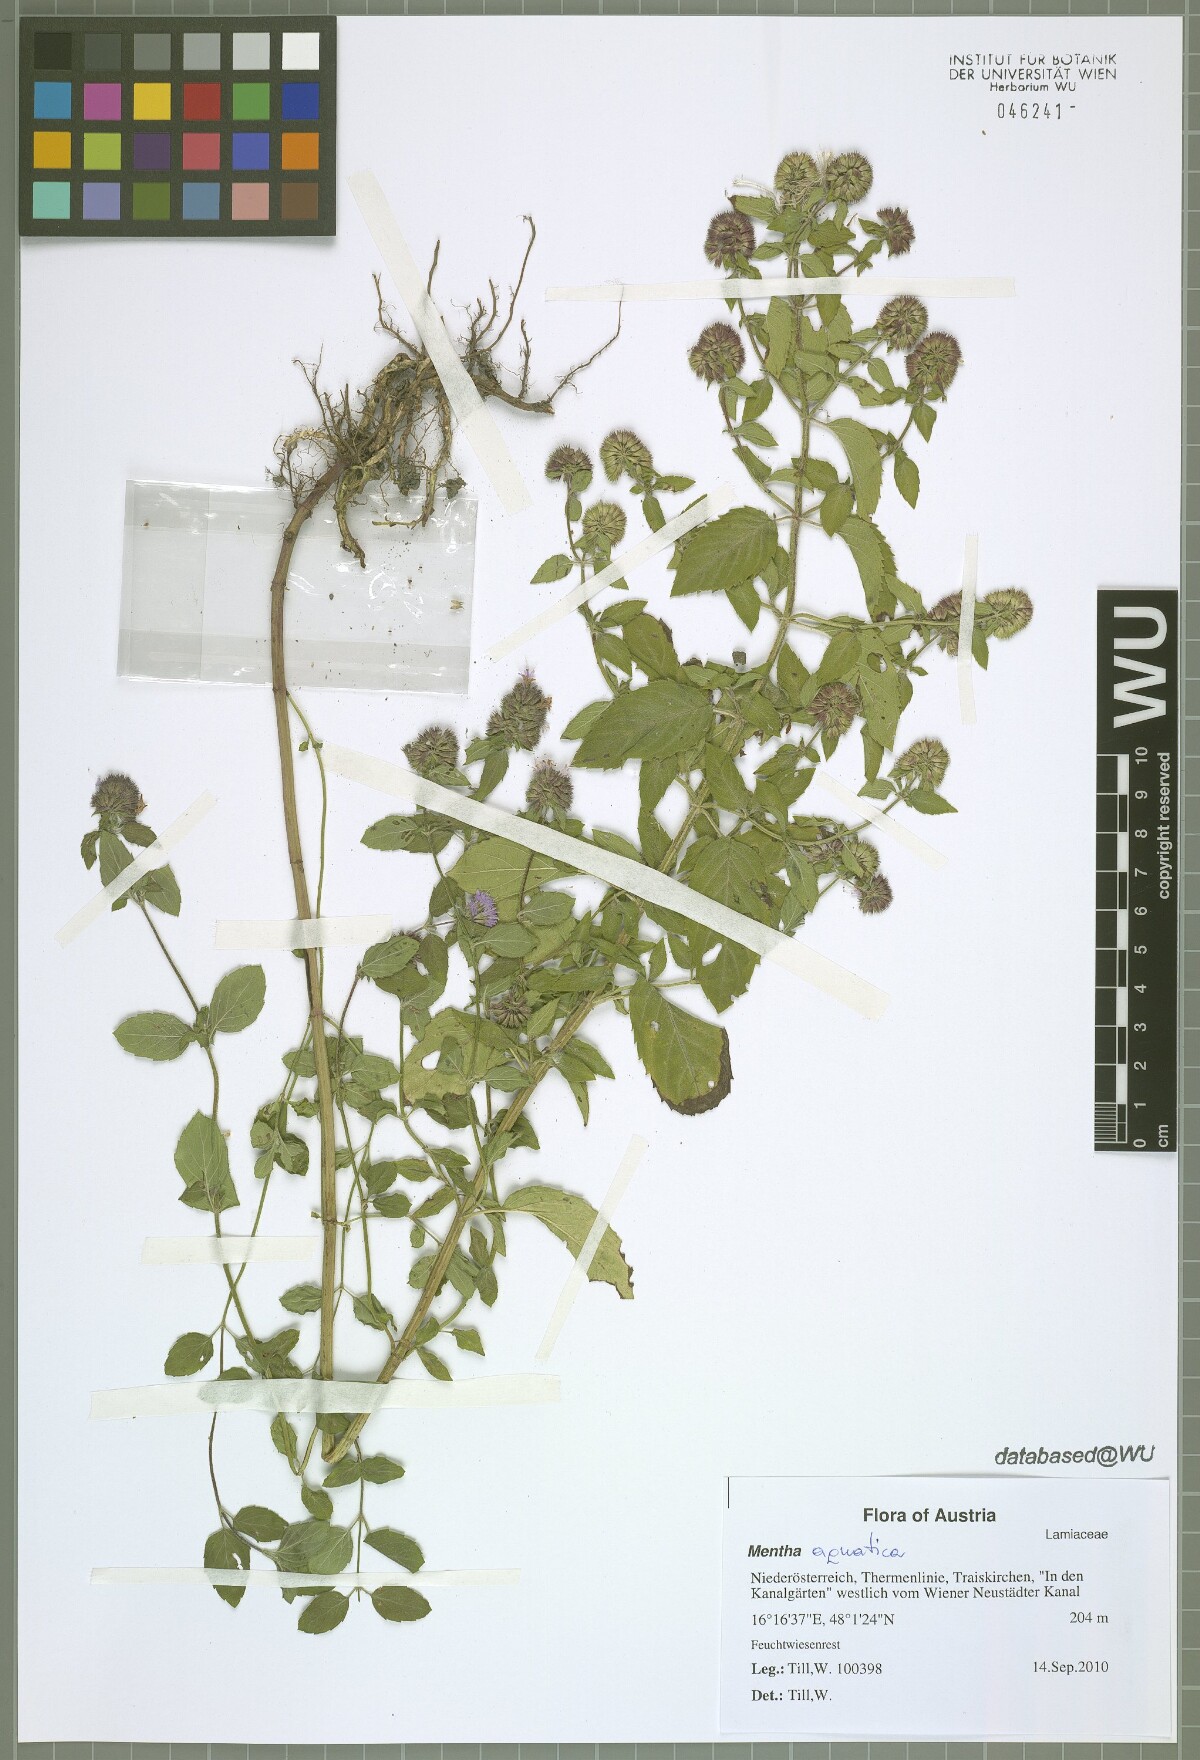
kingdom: Plantae
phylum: Tracheophyta
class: Magnoliopsida
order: Lamiales
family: Lamiaceae
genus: Mentha
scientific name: Mentha aquatica
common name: Water mint
